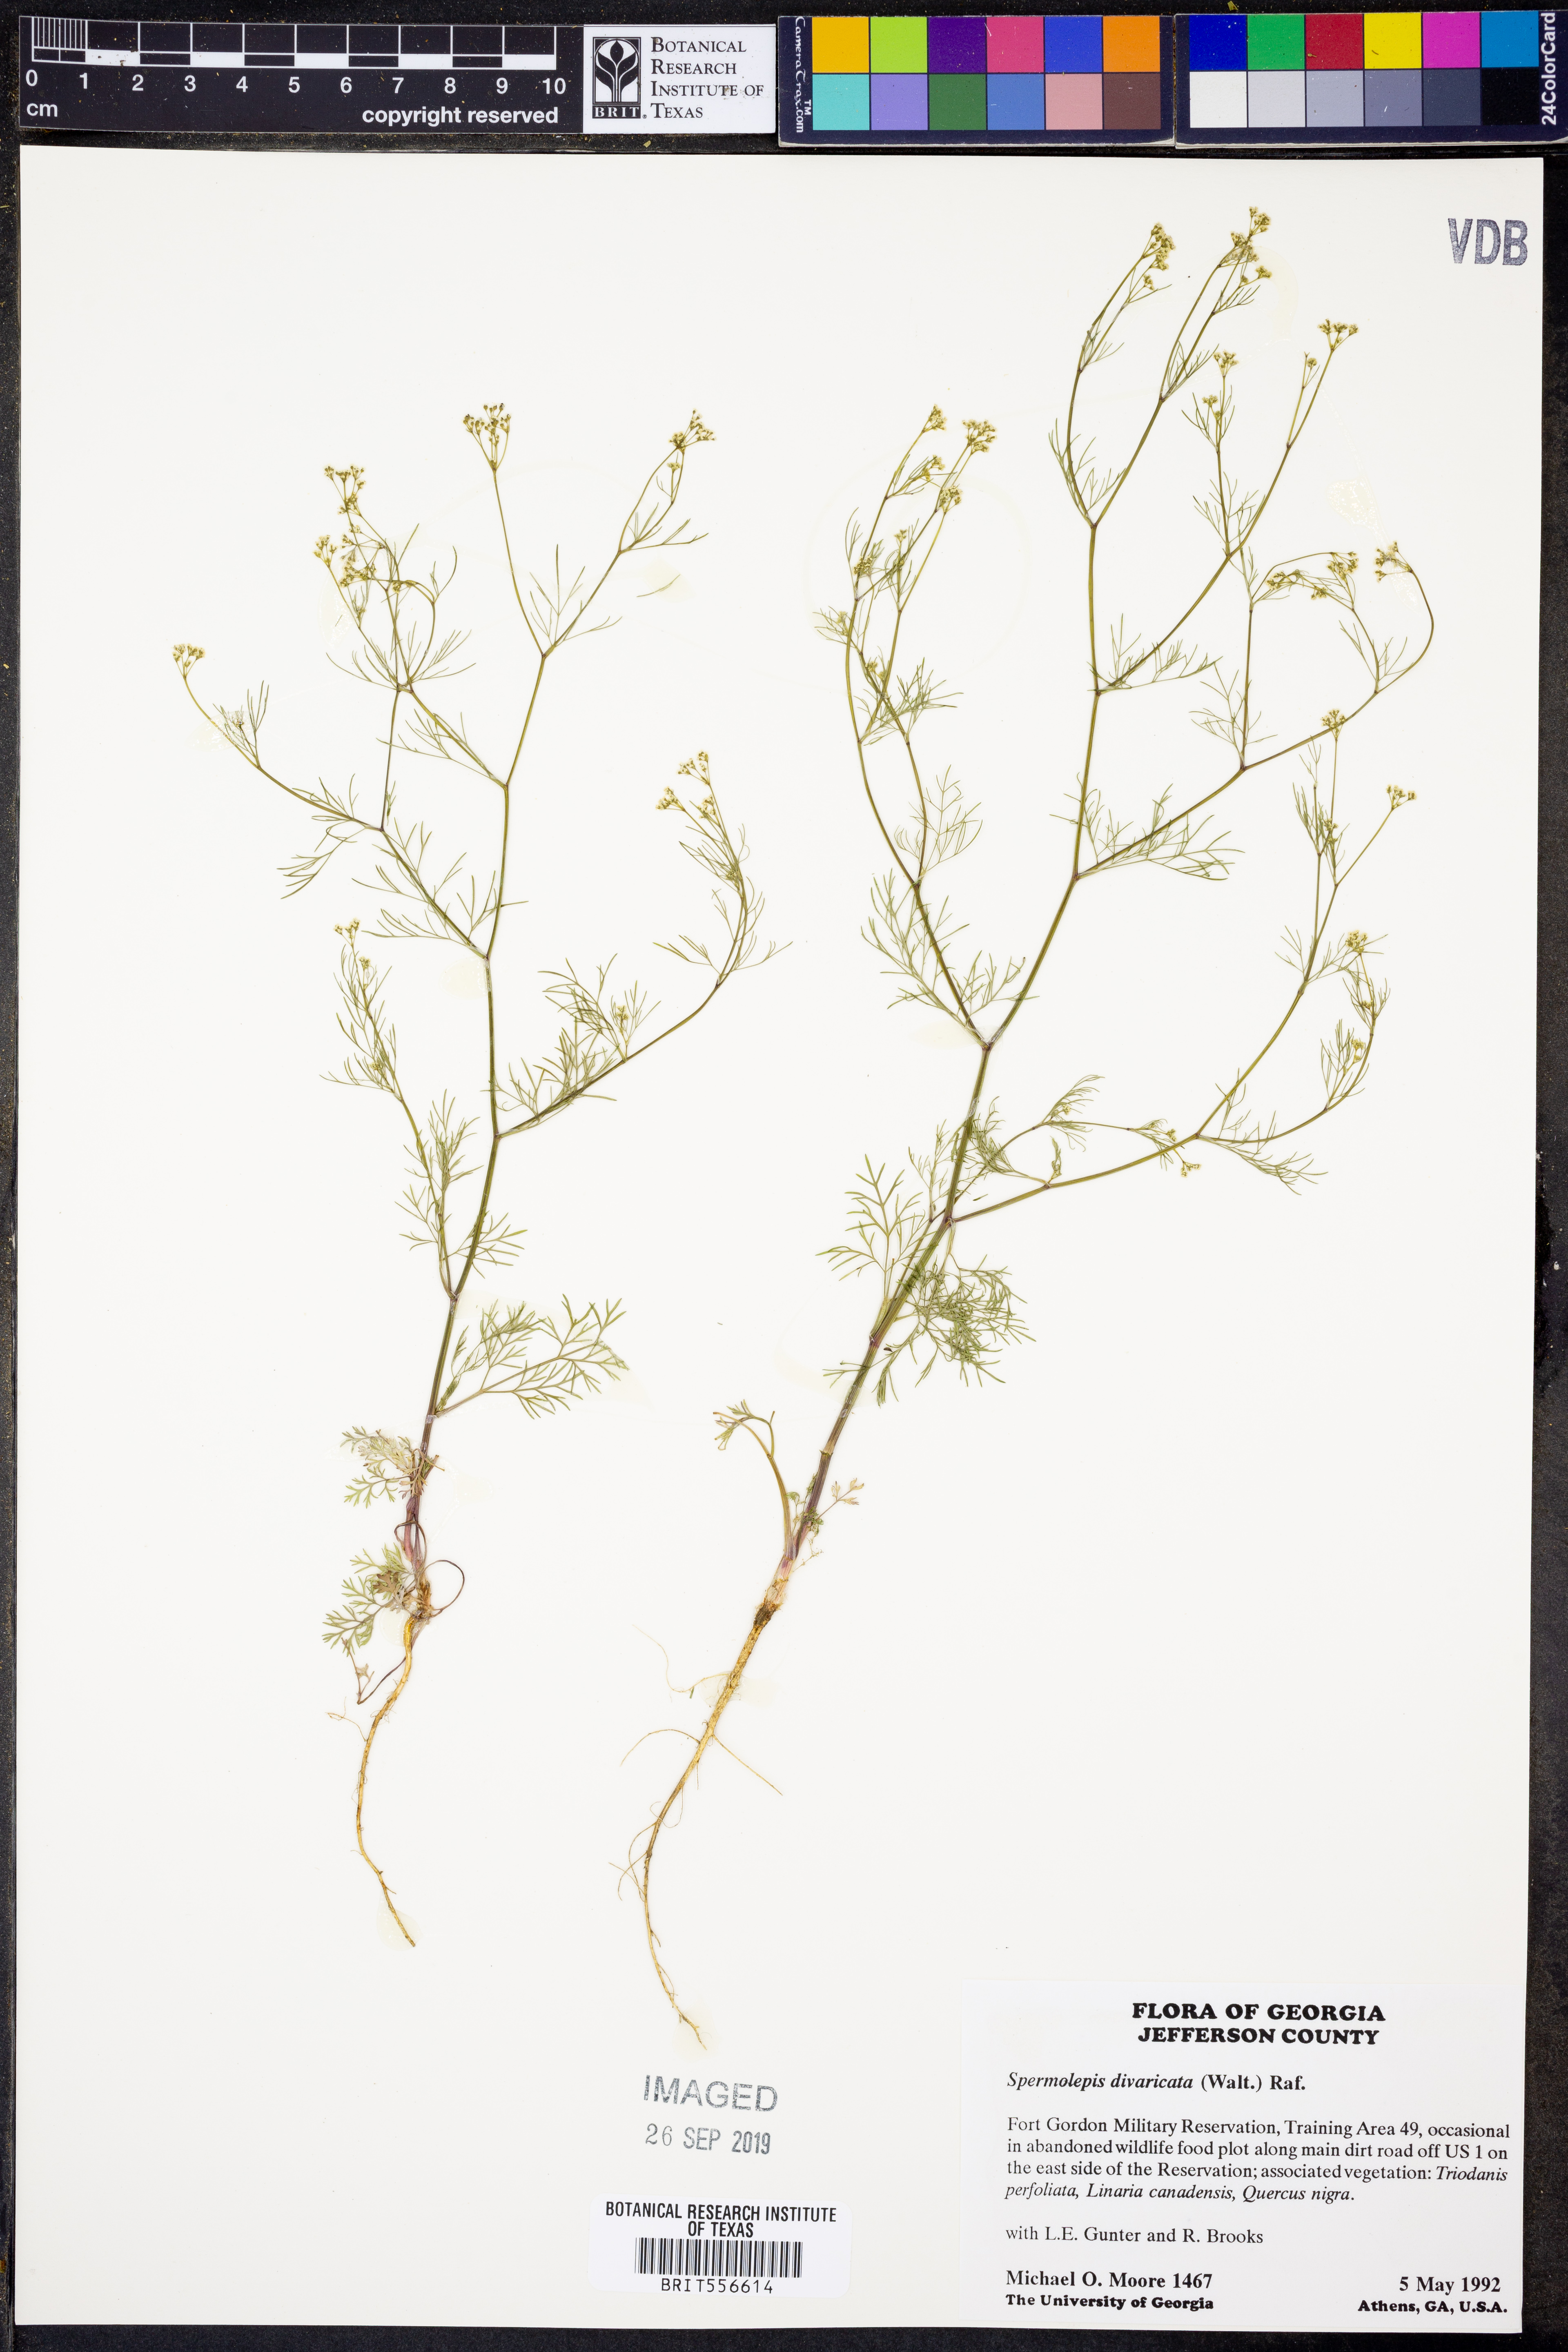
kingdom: Plantae
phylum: Tracheophyta
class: Magnoliopsida
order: Apiales
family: Apiaceae
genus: Spermolepis
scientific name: Spermolepis divaricata
